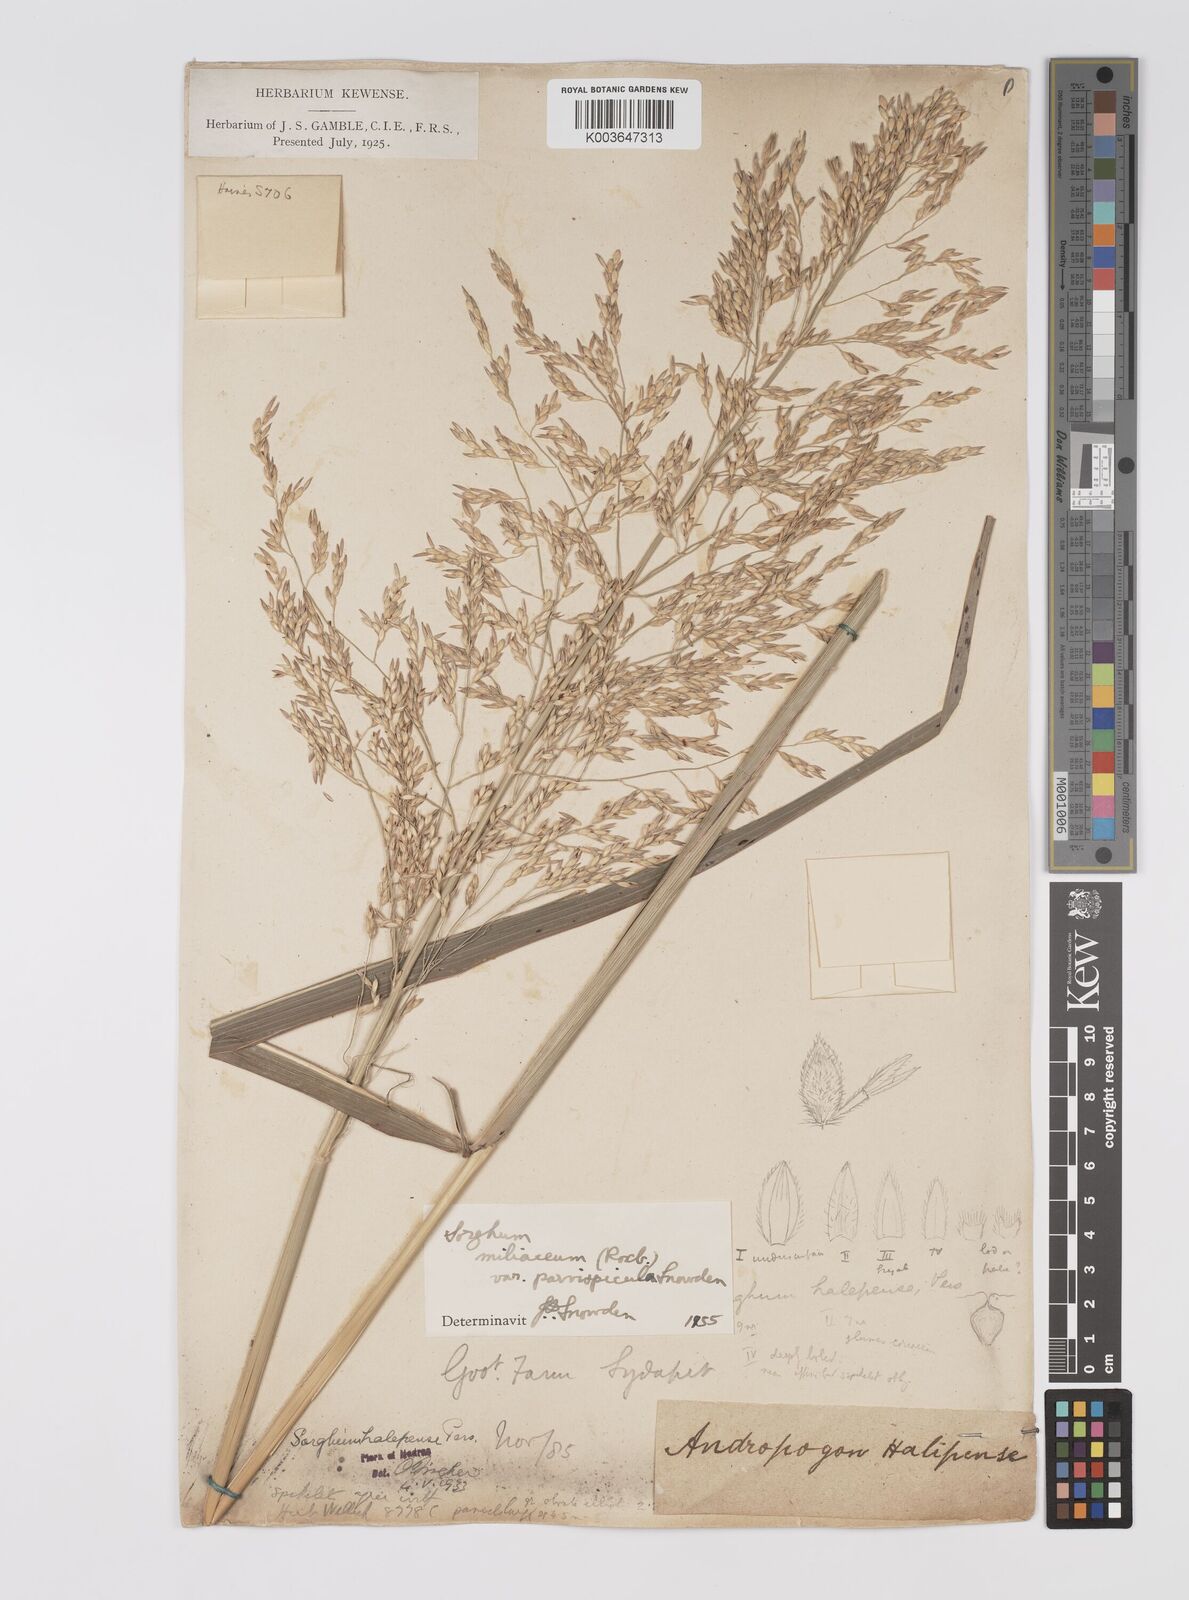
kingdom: Plantae
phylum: Tracheophyta
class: Liliopsida
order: Poales
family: Poaceae
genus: Sorghum
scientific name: Sorghum halepense
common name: Johnson-grass
